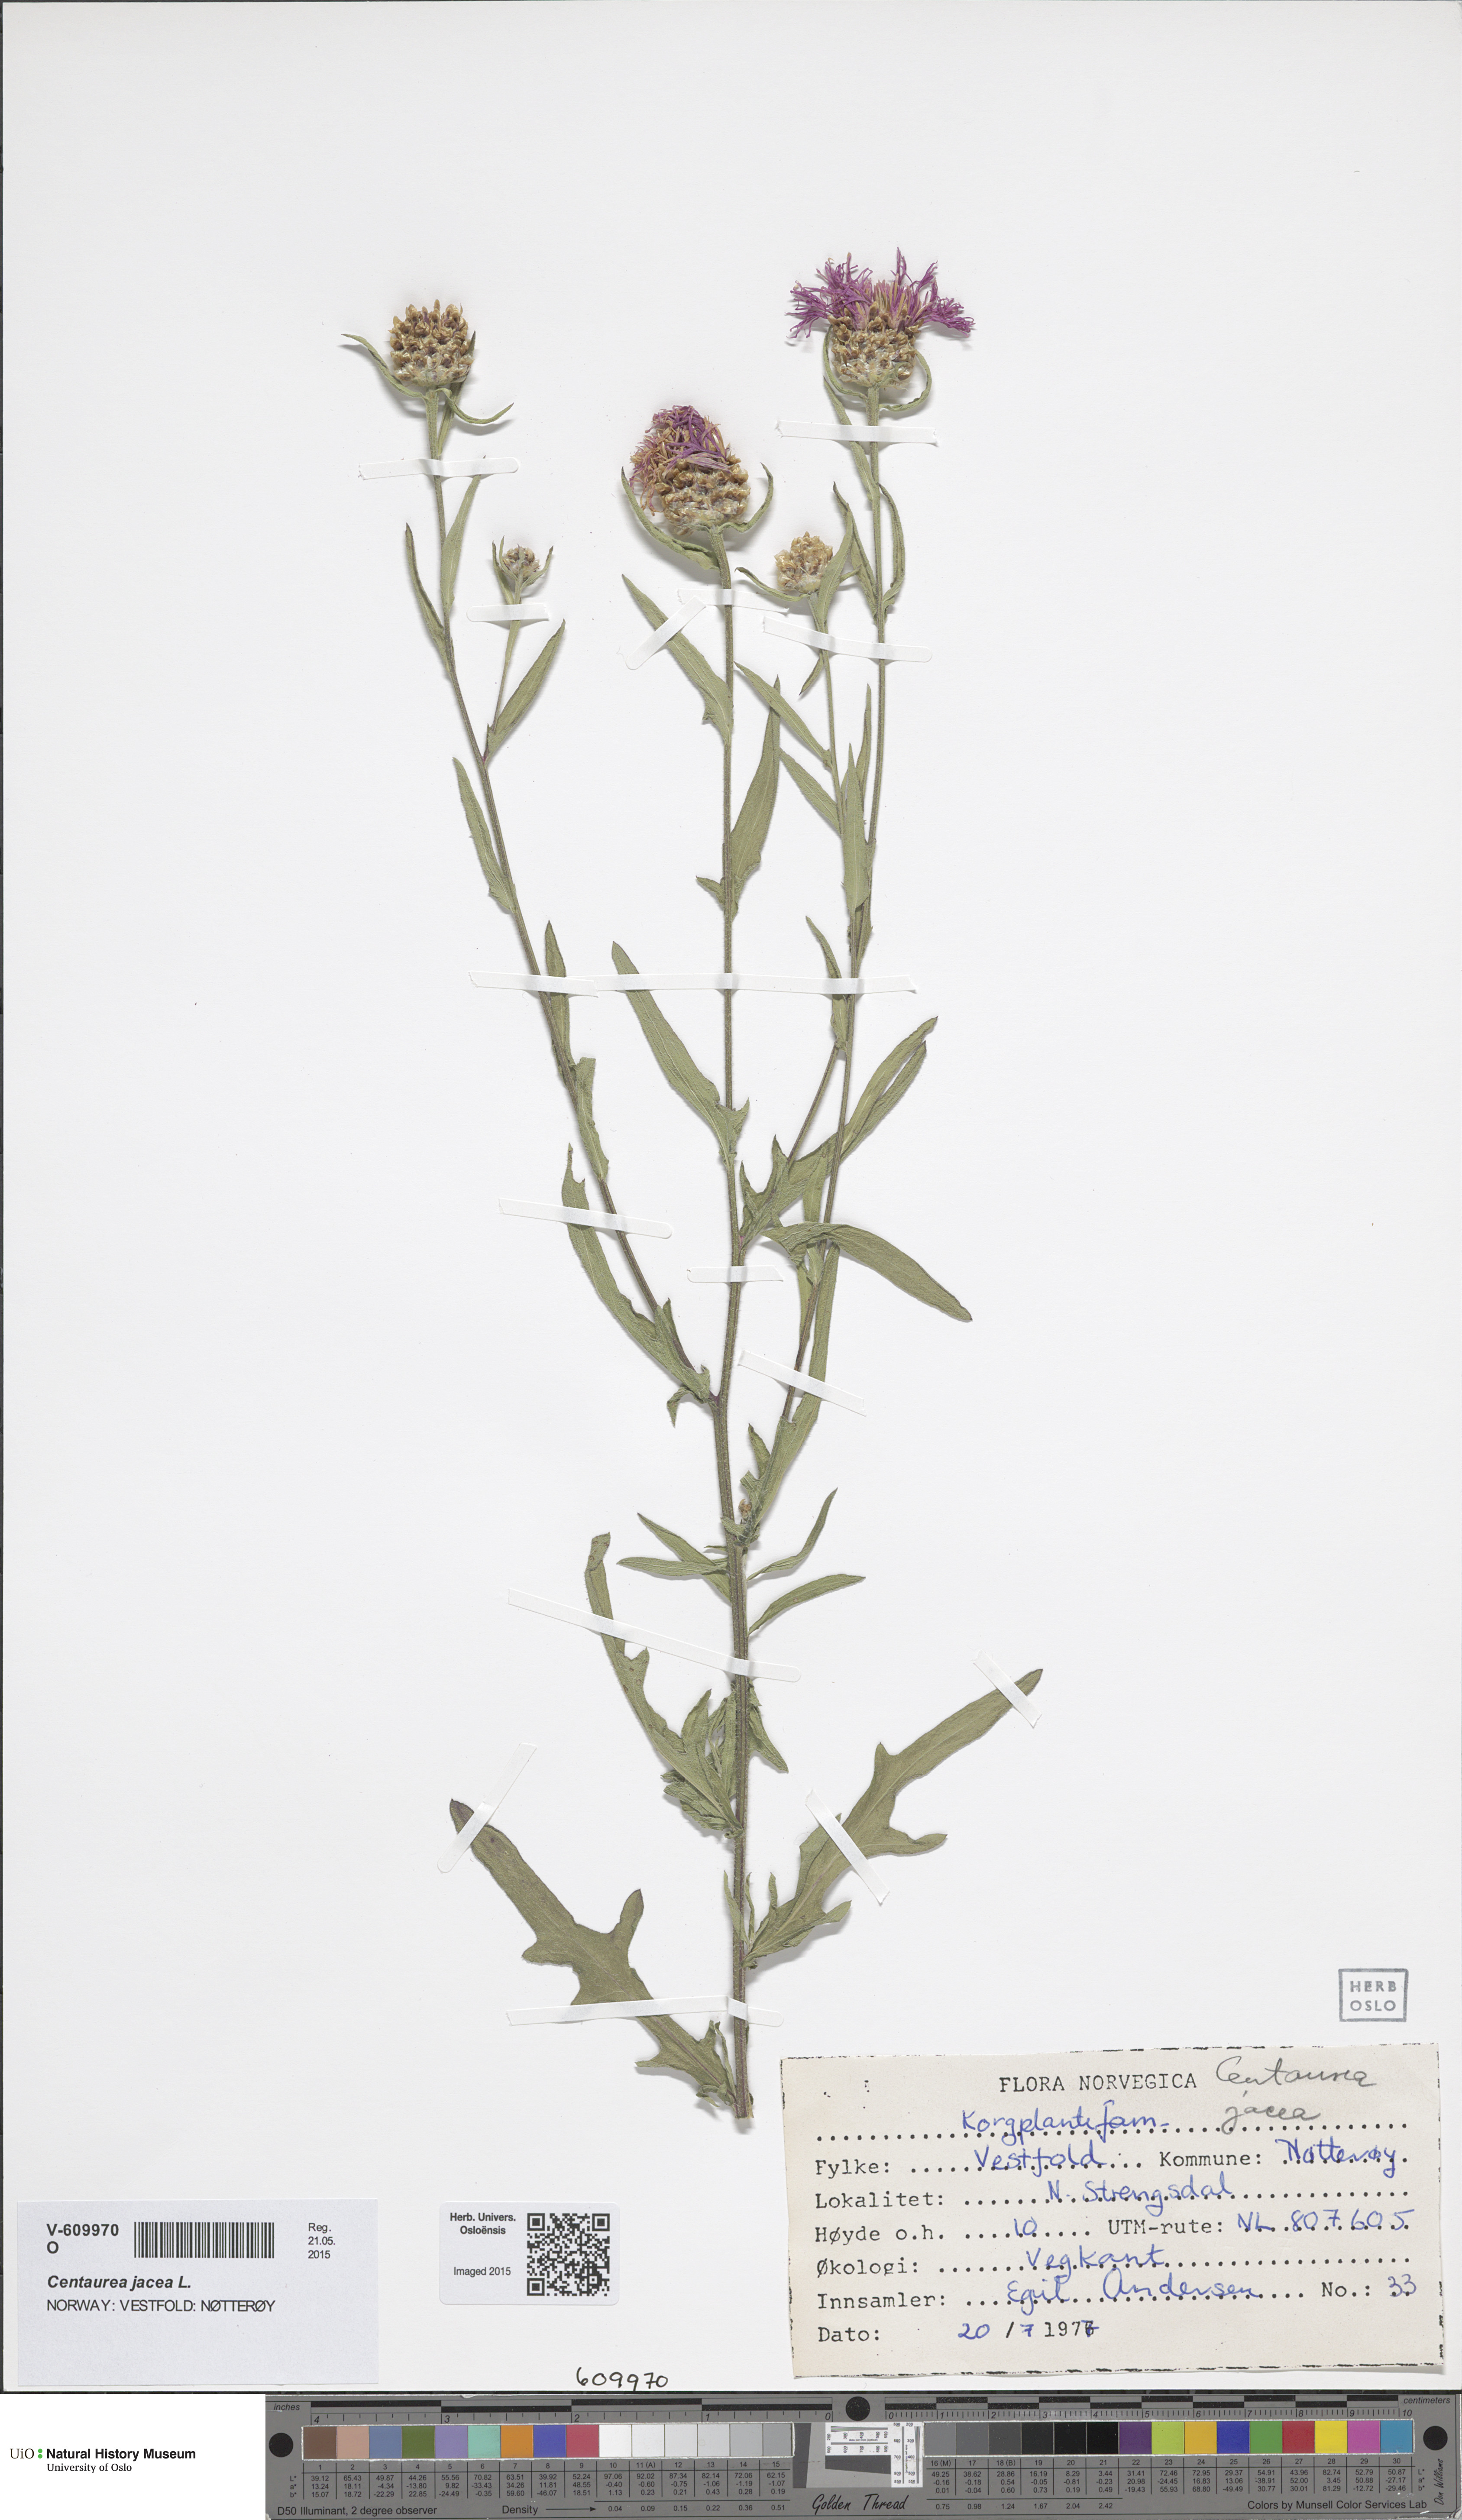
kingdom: Plantae
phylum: Tracheophyta
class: Magnoliopsida
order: Asterales
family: Asteraceae
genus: Centaurea
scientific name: Centaurea jacea
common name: Brown knapweed
